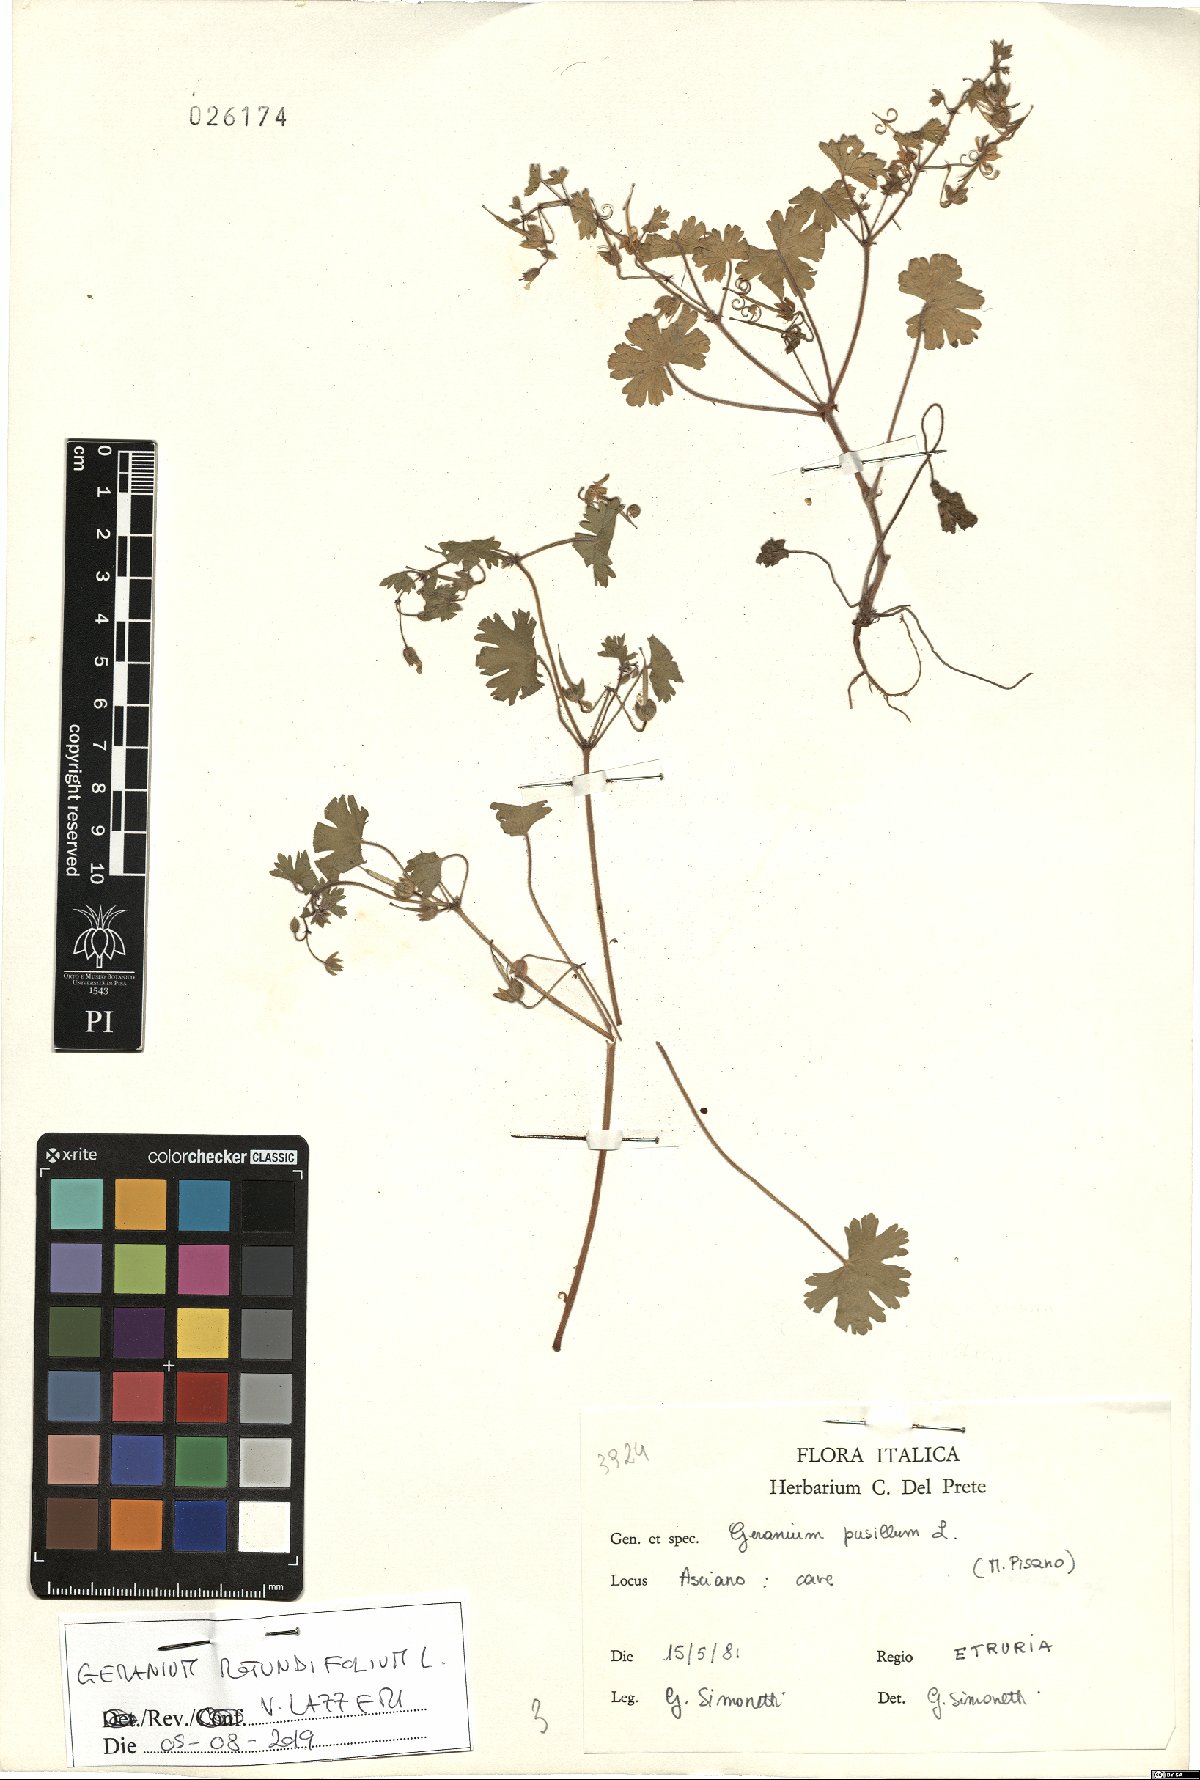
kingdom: Plantae
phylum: Tracheophyta
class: Magnoliopsida
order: Geraniales
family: Geraniaceae
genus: Geranium
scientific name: Geranium rotundifolium
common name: Round-leaved crane's-bill
